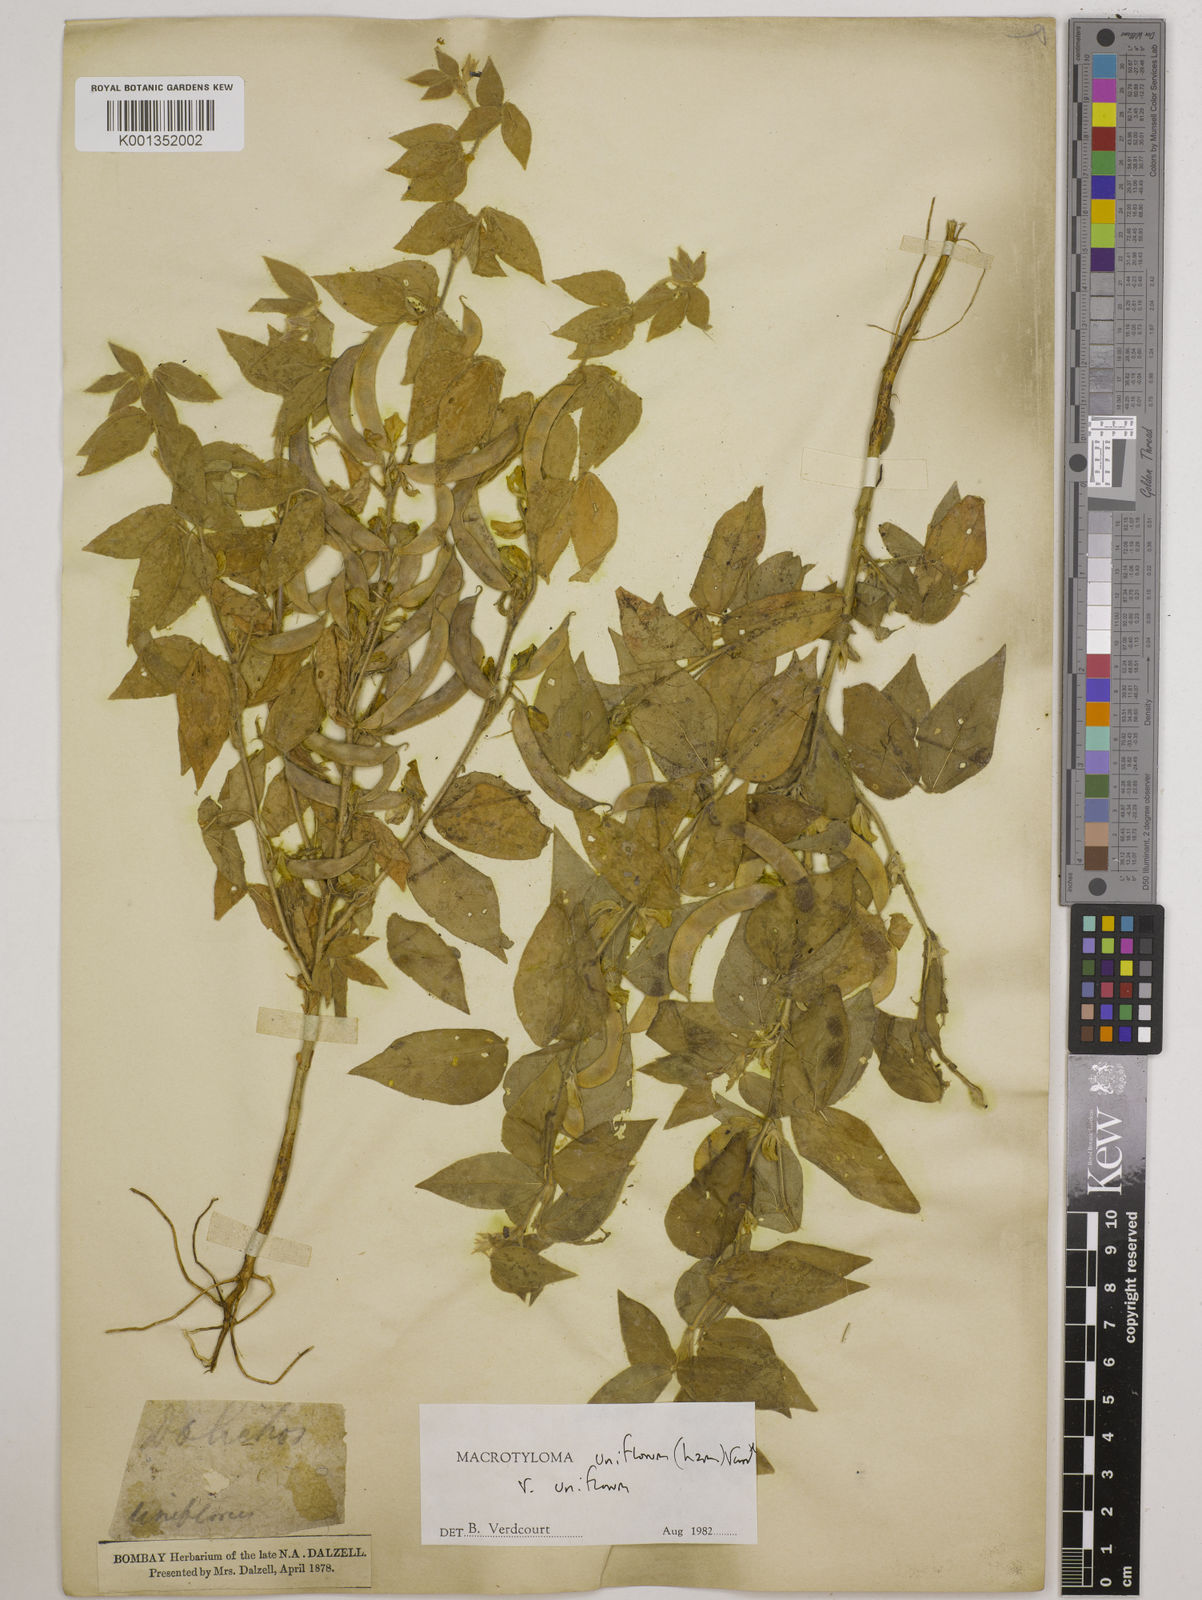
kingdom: Plantae
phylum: Tracheophyta
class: Magnoliopsida
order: Fabales
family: Fabaceae
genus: Macrotyloma
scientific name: Macrotyloma uniflorum
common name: Horse gram
